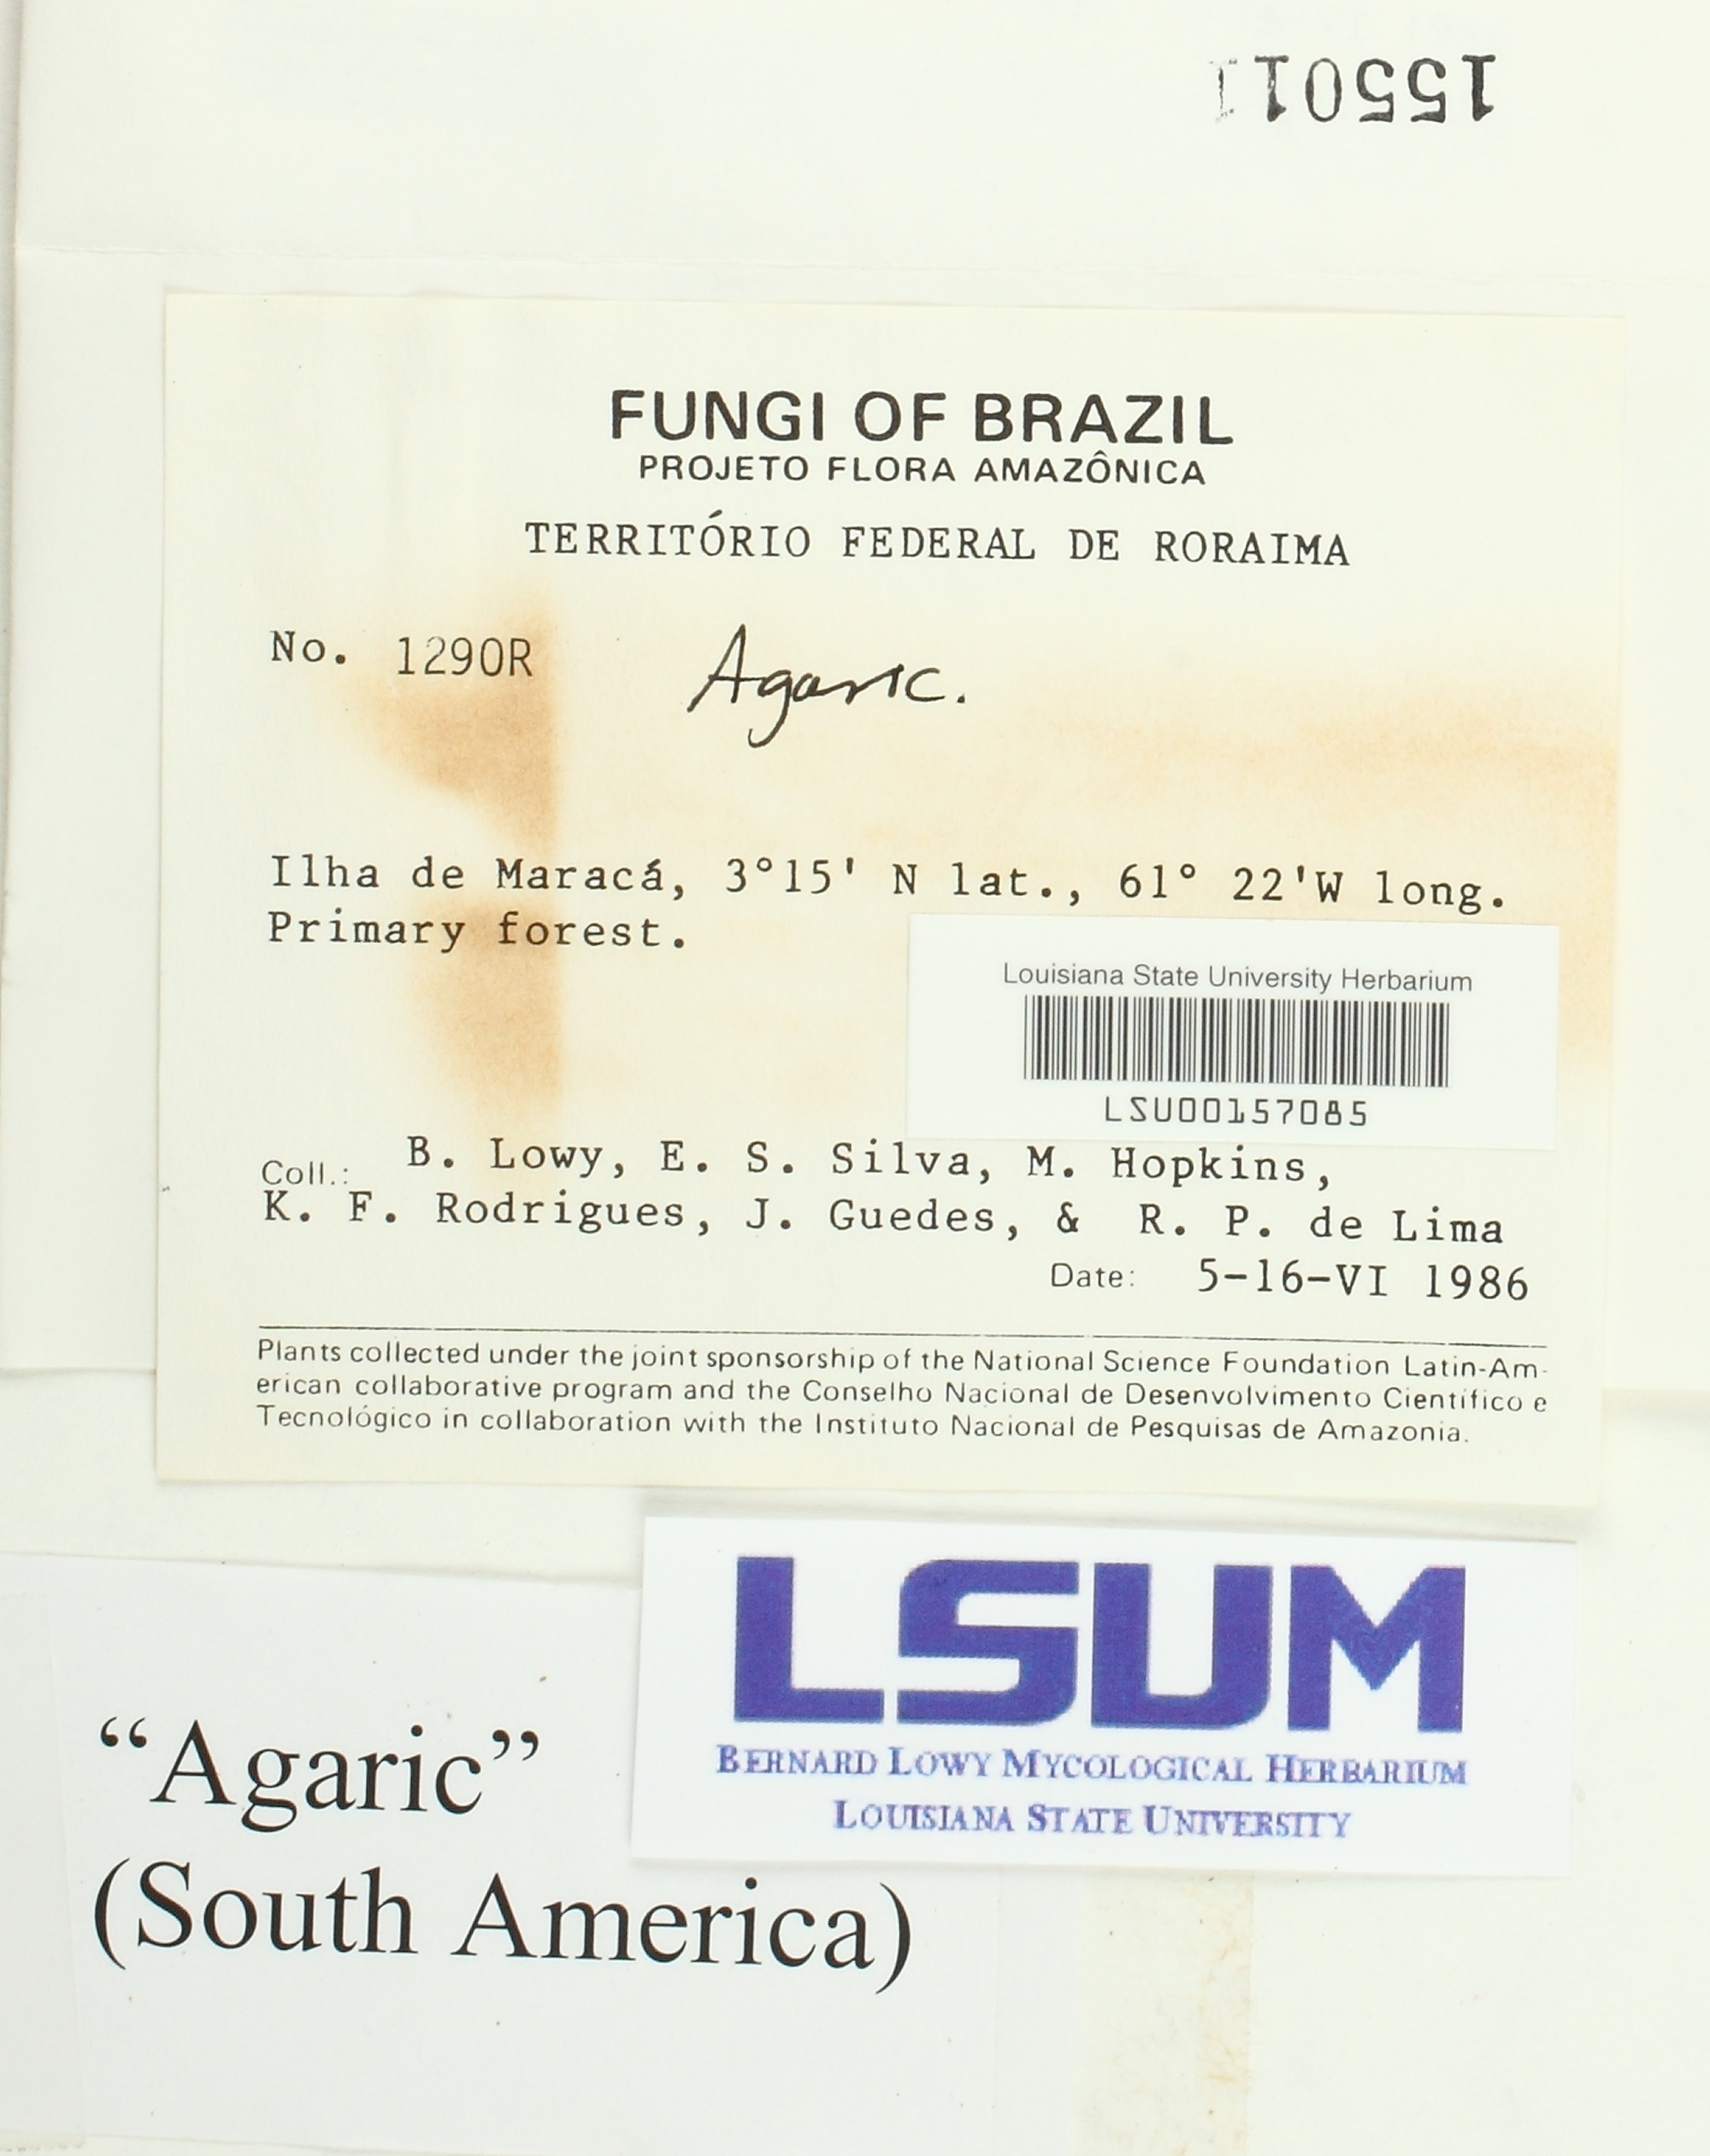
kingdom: Fungi
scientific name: Fungi
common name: Fungi
